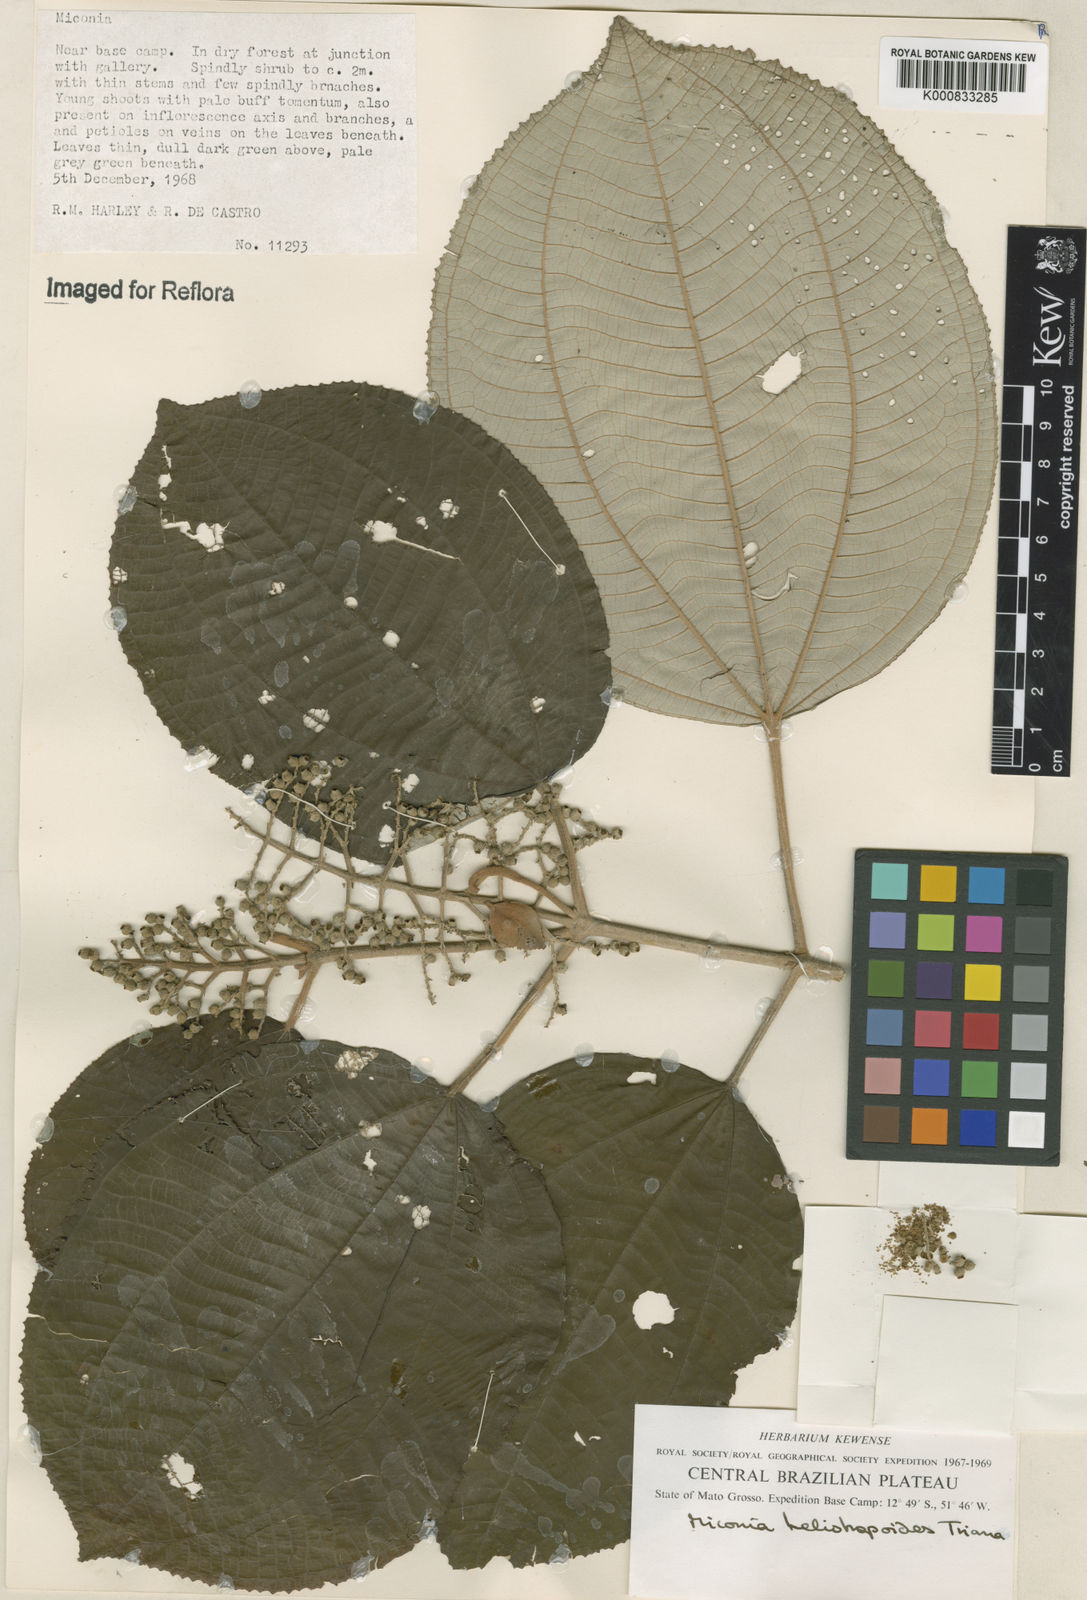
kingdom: Plantae
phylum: Tracheophyta
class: Magnoliopsida
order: Myrtales
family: Melastomataceae
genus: Miconia
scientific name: Miconia heliotropoides
